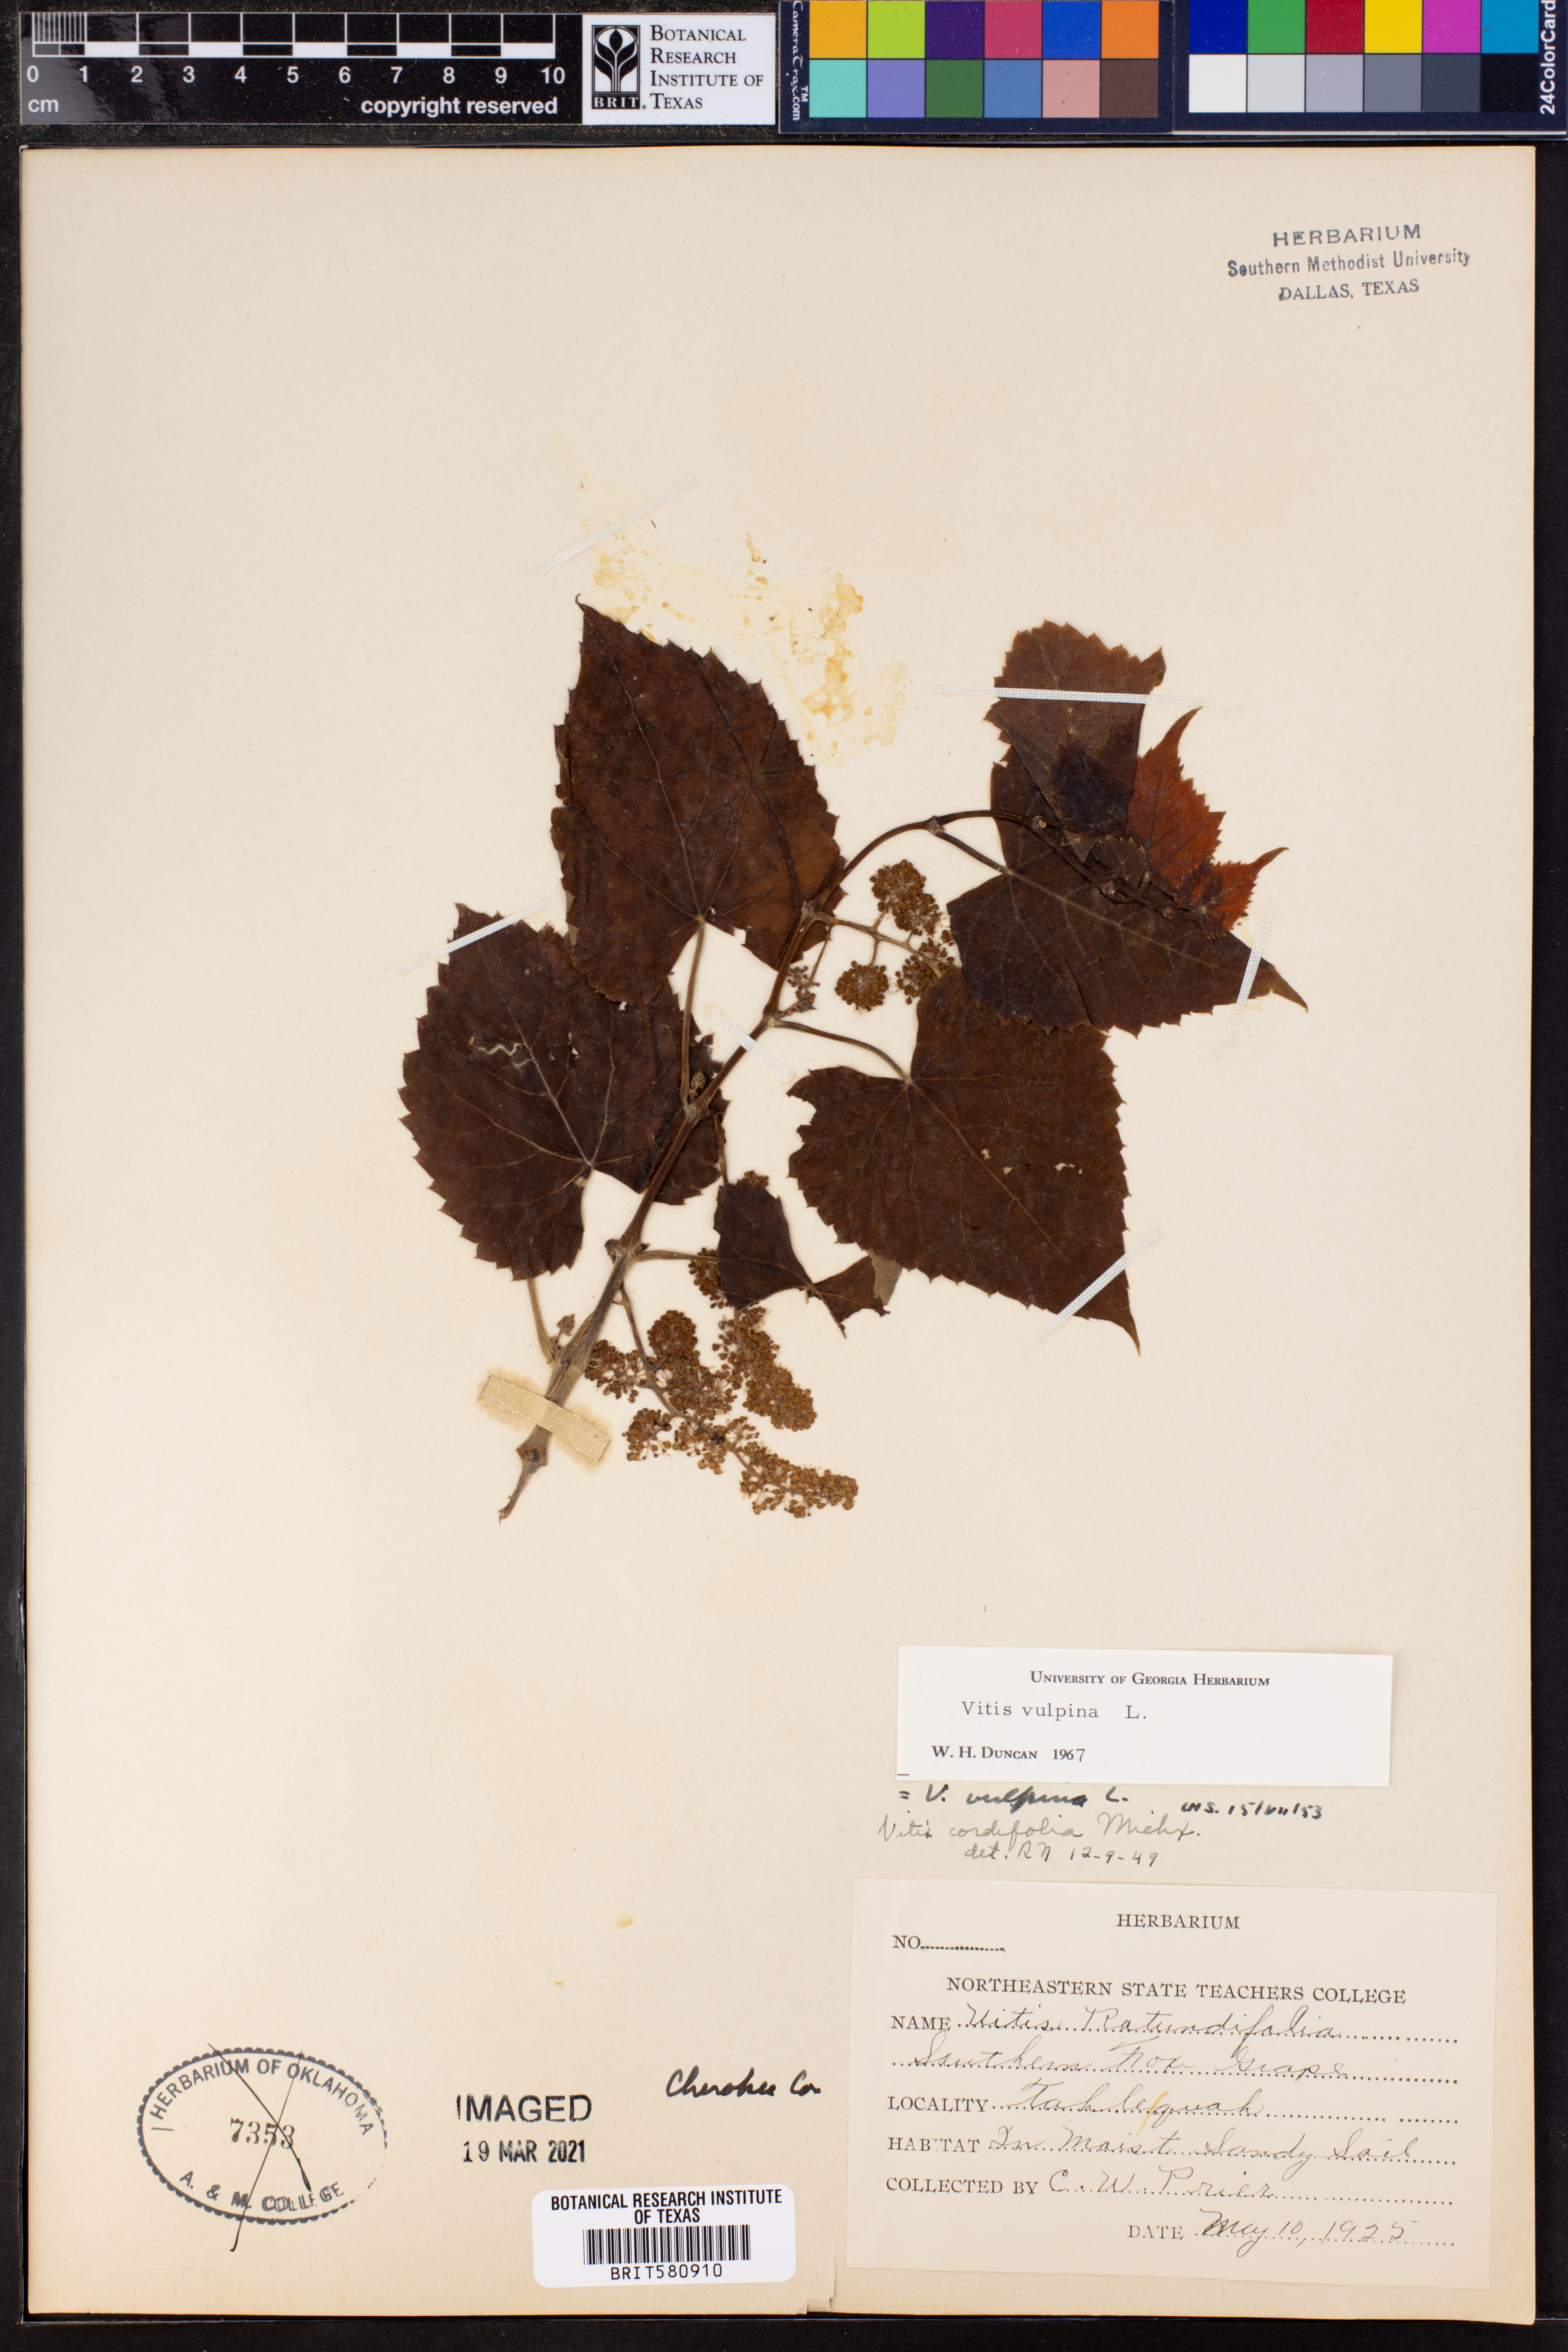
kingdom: Plantae
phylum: Tracheophyta
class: Magnoliopsida
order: Vitales
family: Vitaceae
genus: Vitis
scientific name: Vitis vulpina
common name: Frost grape
